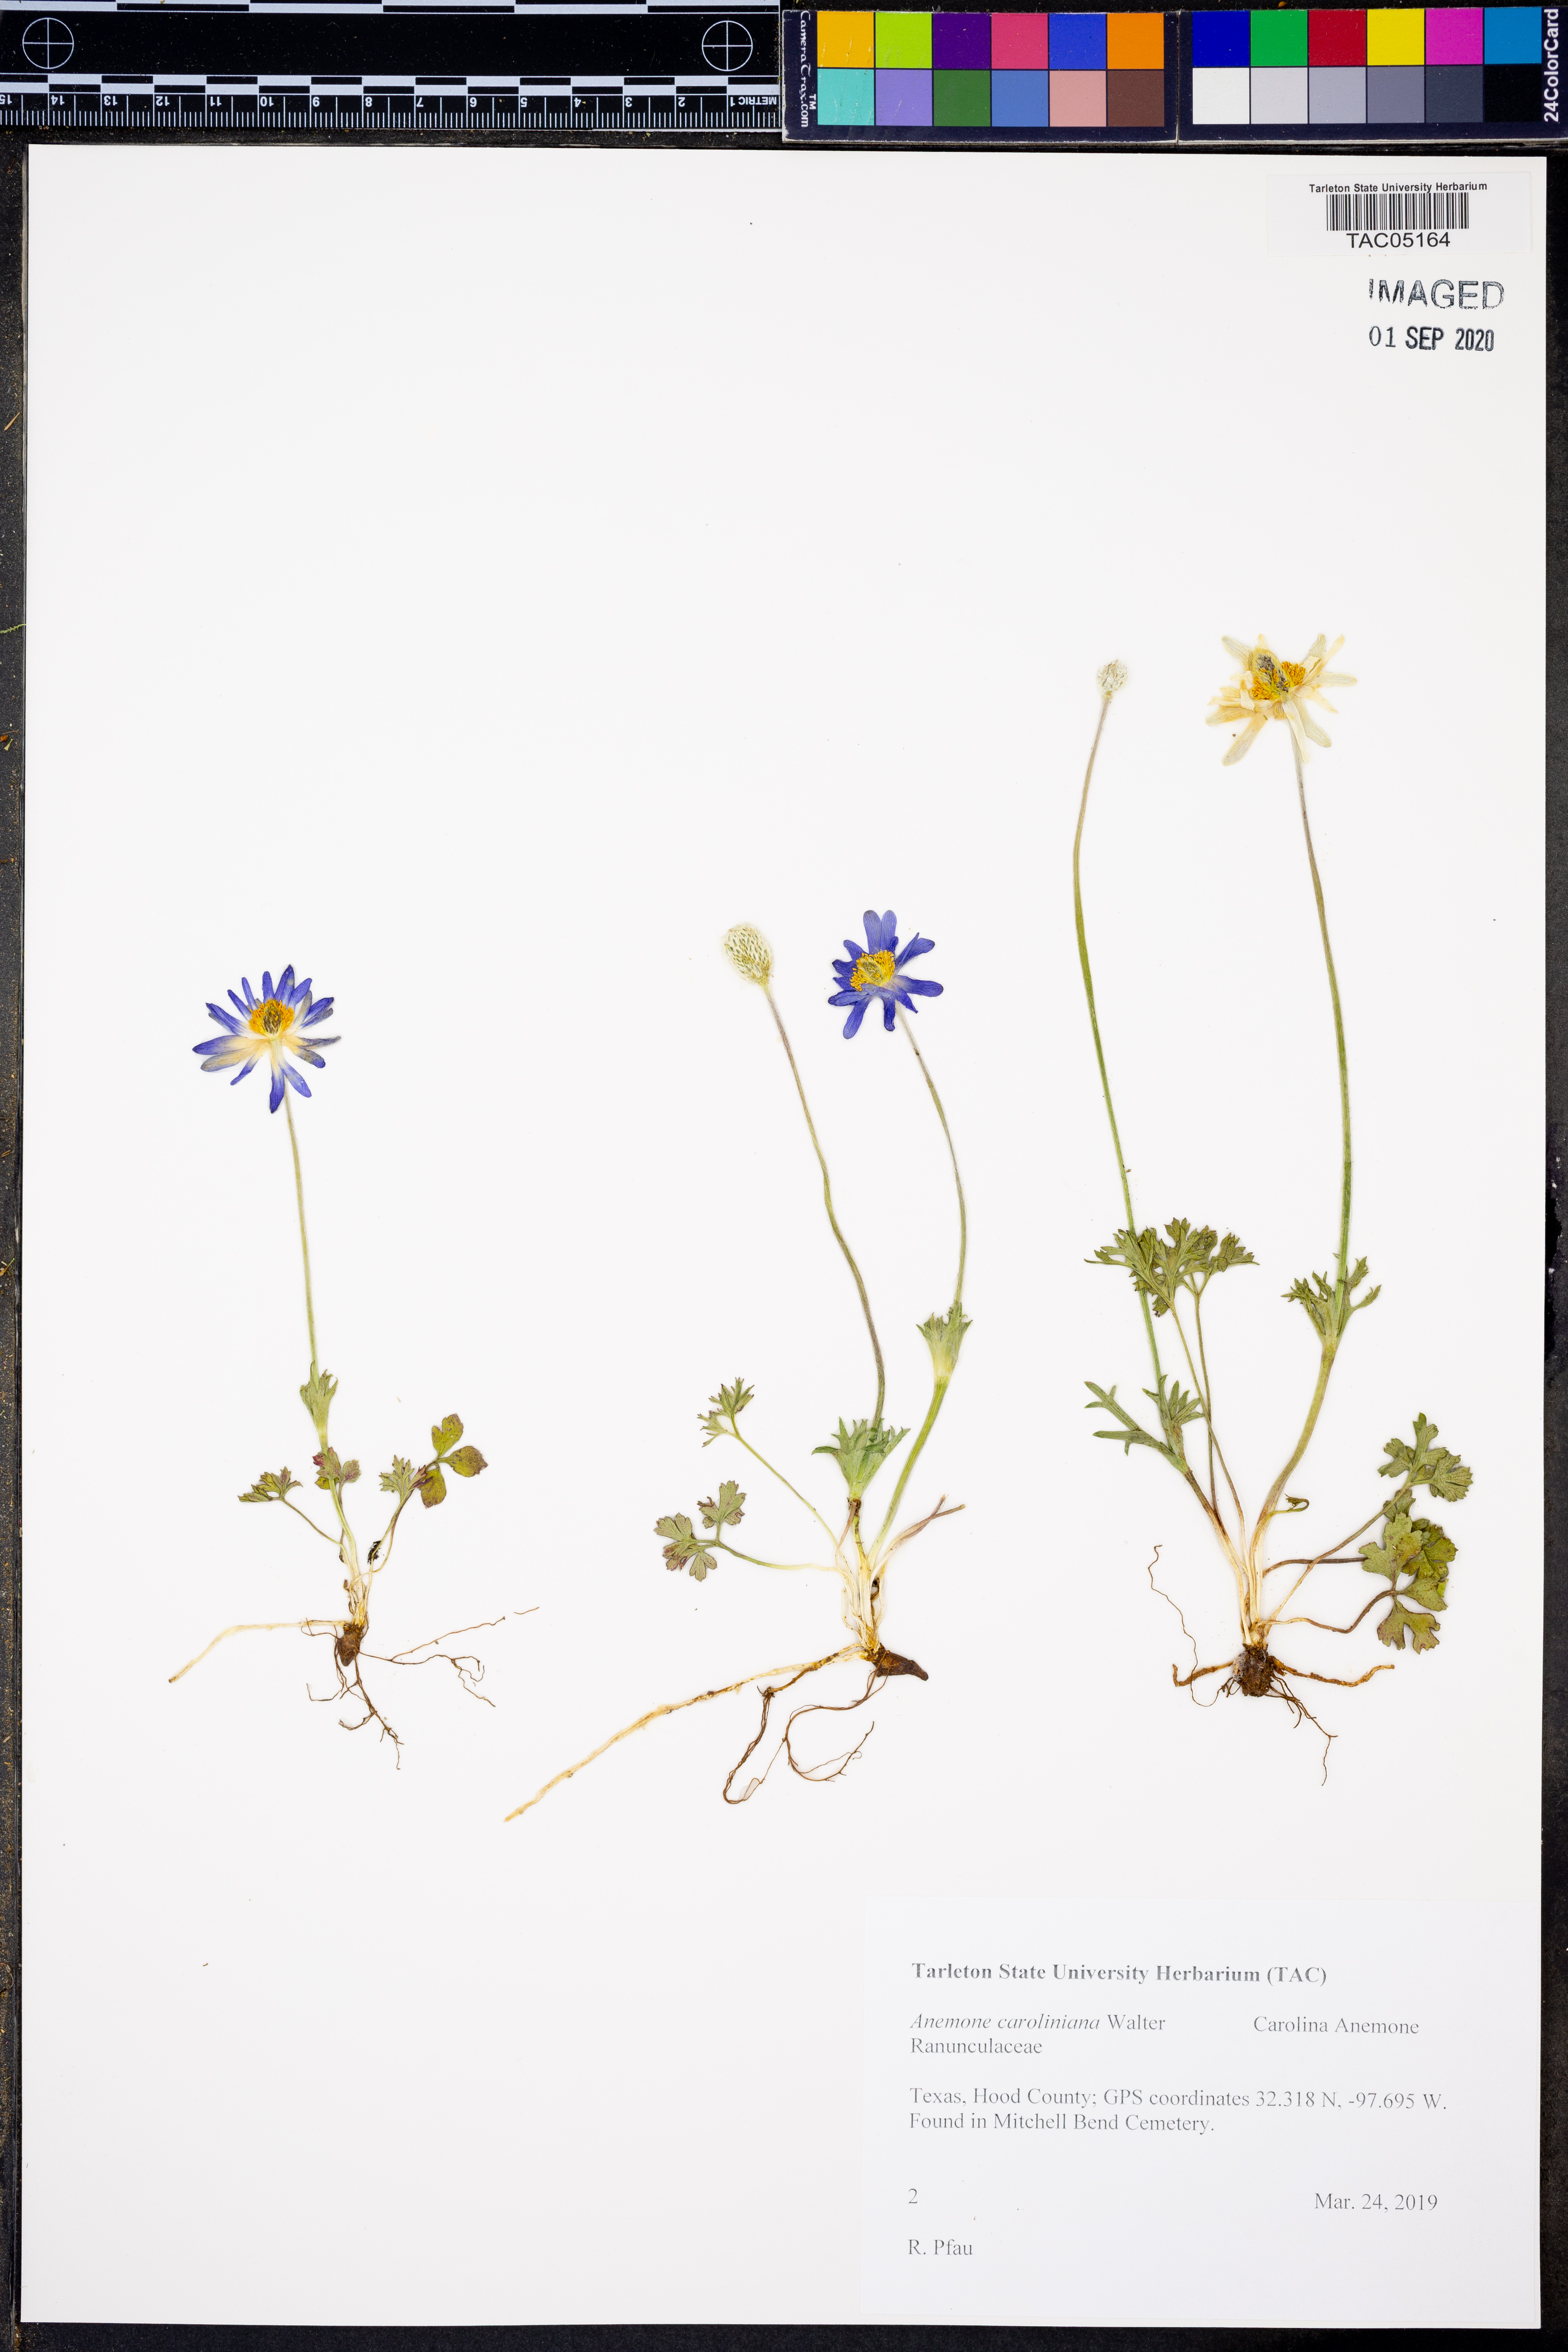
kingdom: Plantae
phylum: Tracheophyta
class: Magnoliopsida
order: Ranunculales
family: Ranunculaceae
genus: Anemone
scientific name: Anemone caroliniana
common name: Carolina anemone
